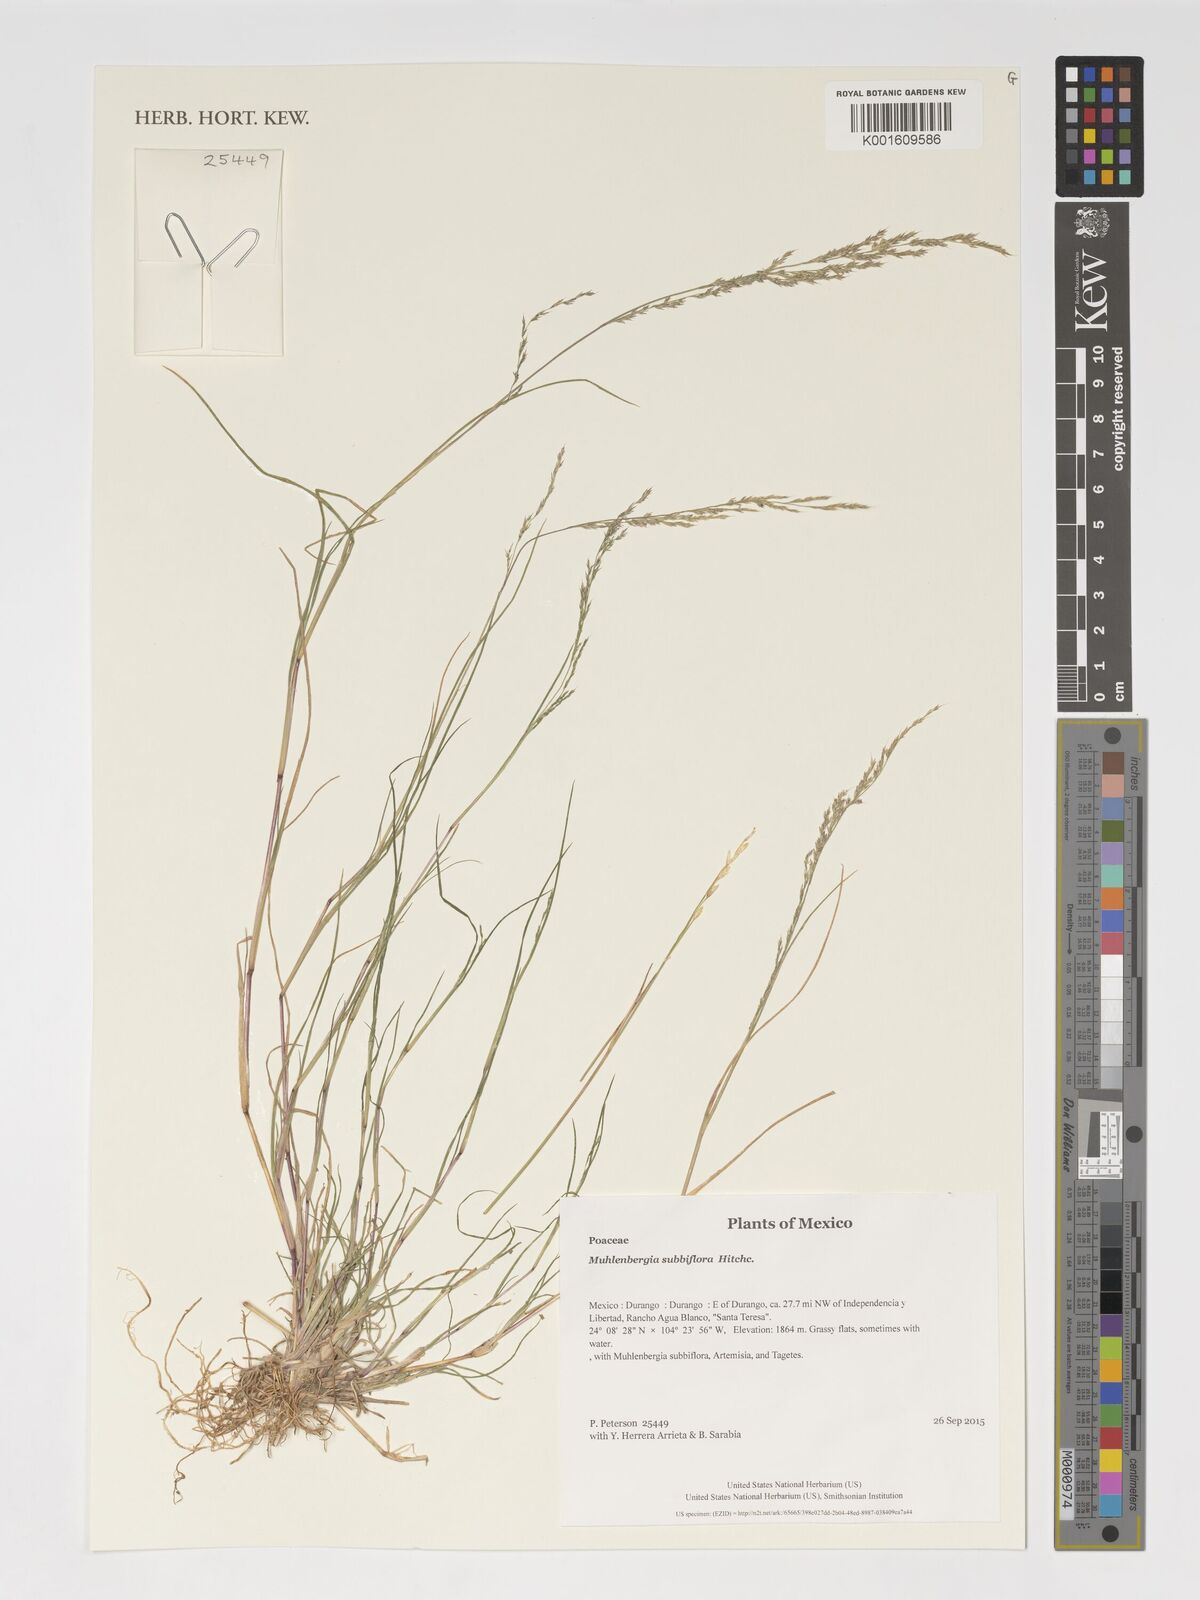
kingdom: Plantae
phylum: Tracheophyta
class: Liliopsida
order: Poales
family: Poaceae
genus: Muhlenbergia
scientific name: Muhlenbergia subbiflora
